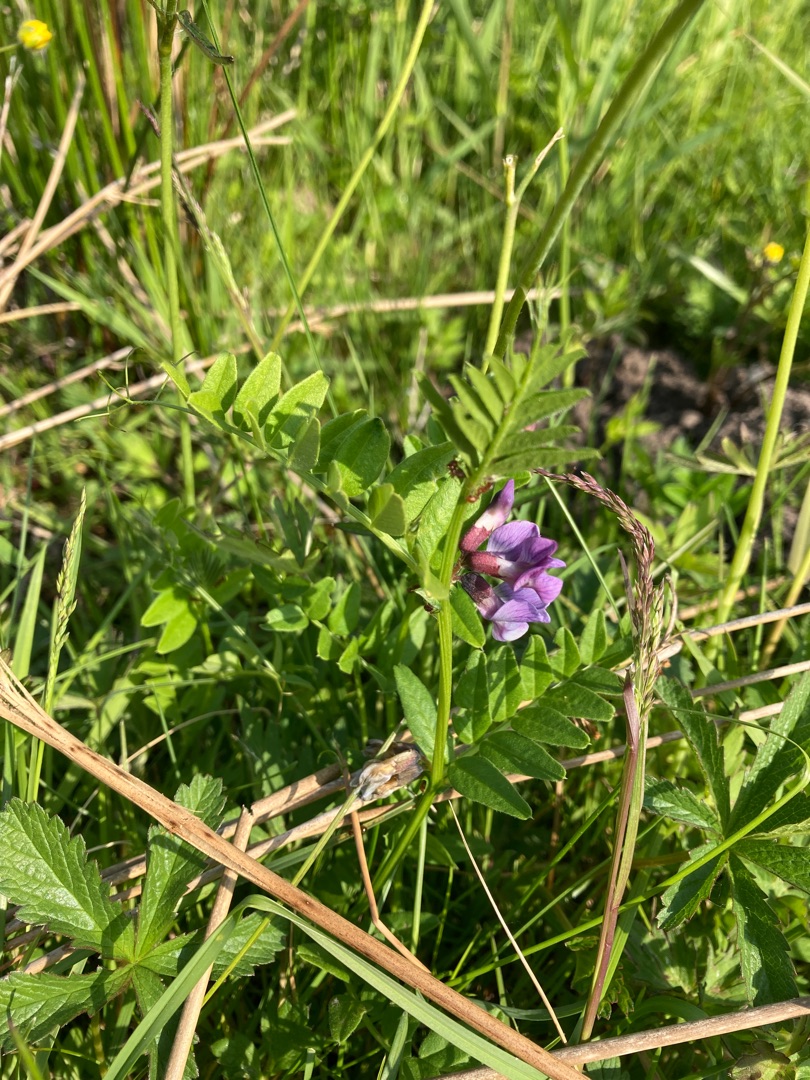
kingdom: Plantae
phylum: Tracheophyta
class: Magnoliopsida
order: Fabales
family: Fabaceae
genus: Vicia
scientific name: Vicia sepium
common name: Gærde-vikke
